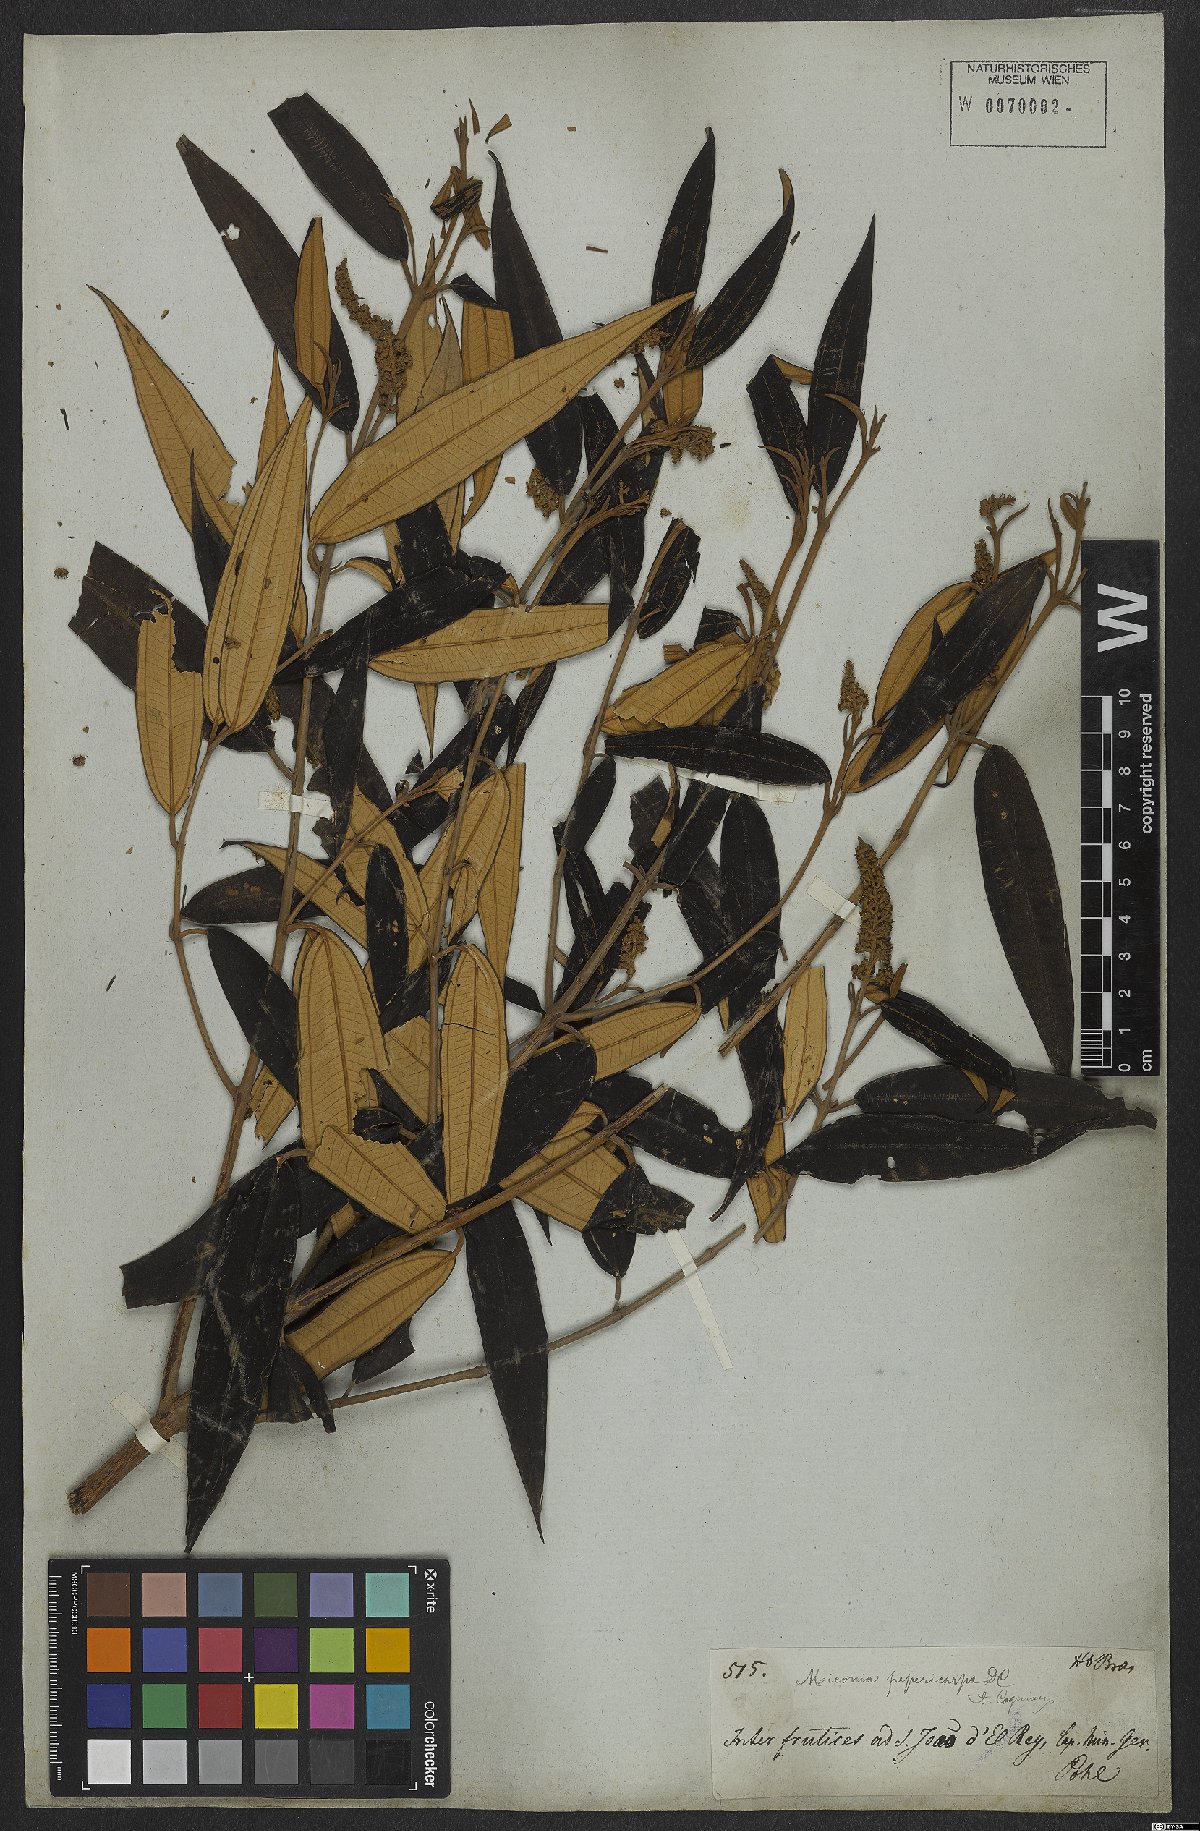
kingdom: Plantae
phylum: Tracheophyta
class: Magnoliopsida
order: Myrtales
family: Melastomataceae
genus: Miconia
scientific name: Miconia pepericarpa
